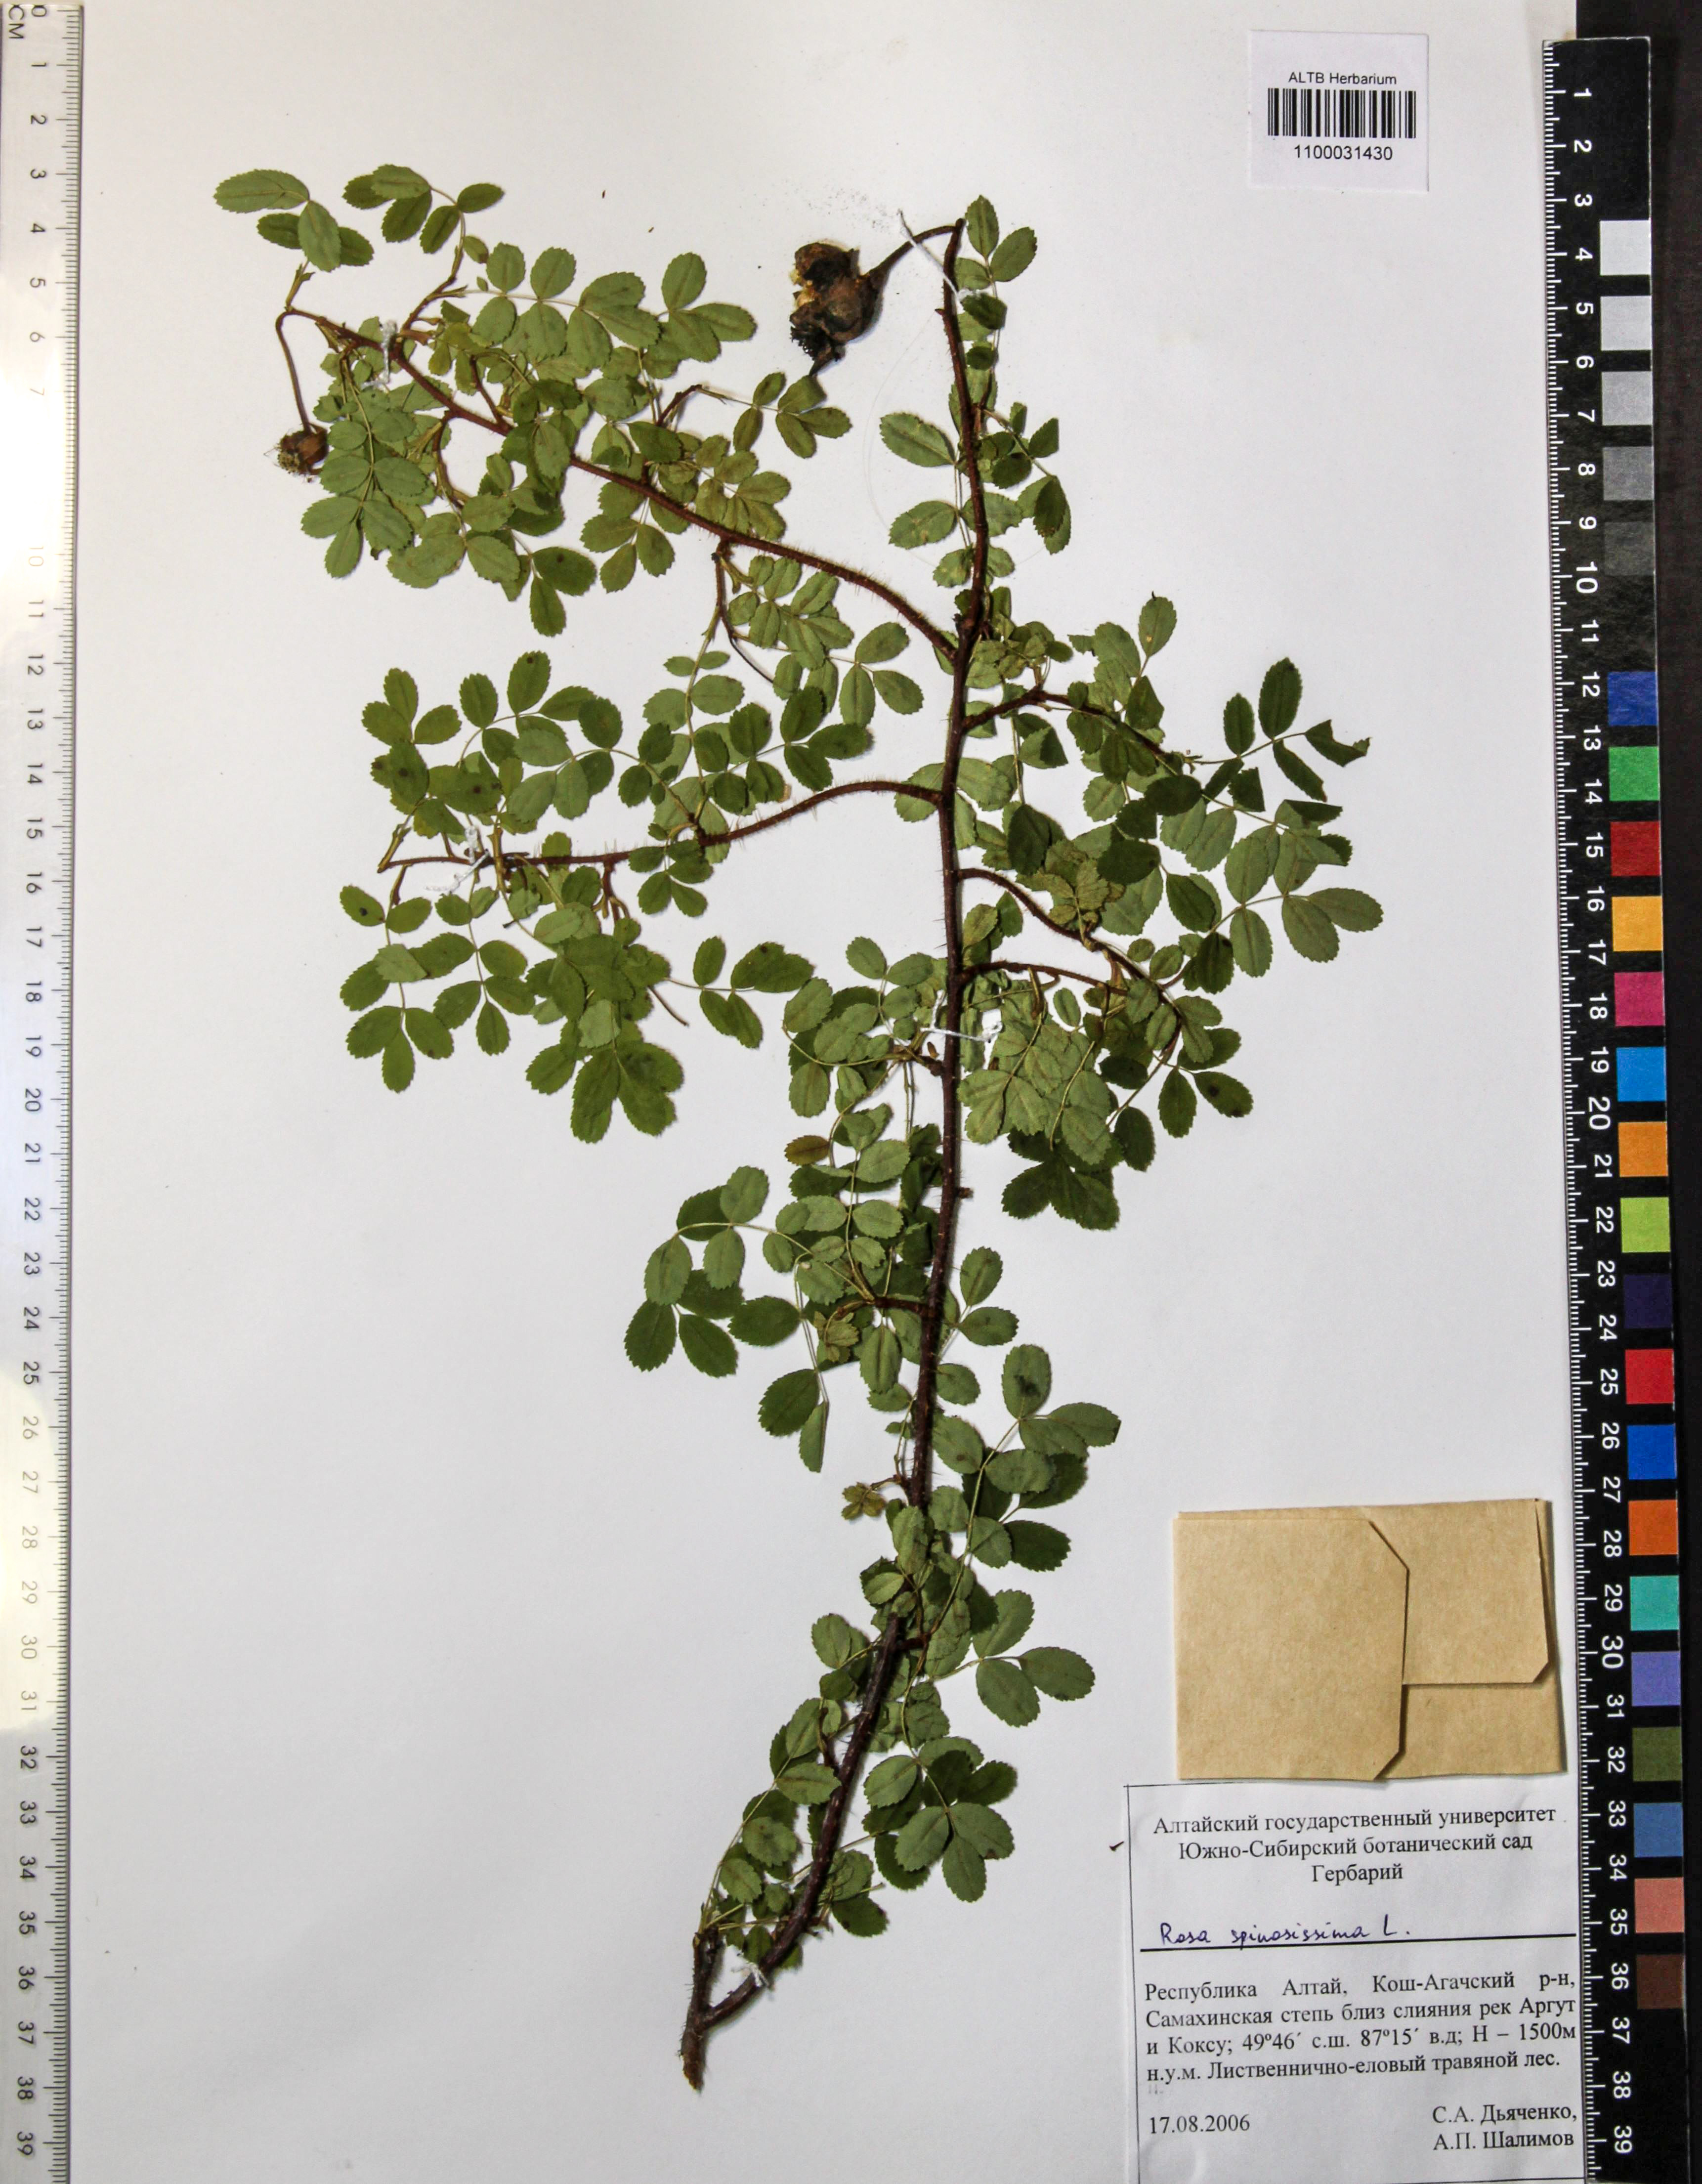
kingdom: Plantae
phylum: Tracheophyta
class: Magnoliopsida
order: Rosales
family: Rosaceae
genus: Rosa
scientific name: Rosa spinosissima
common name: Burnet rose
